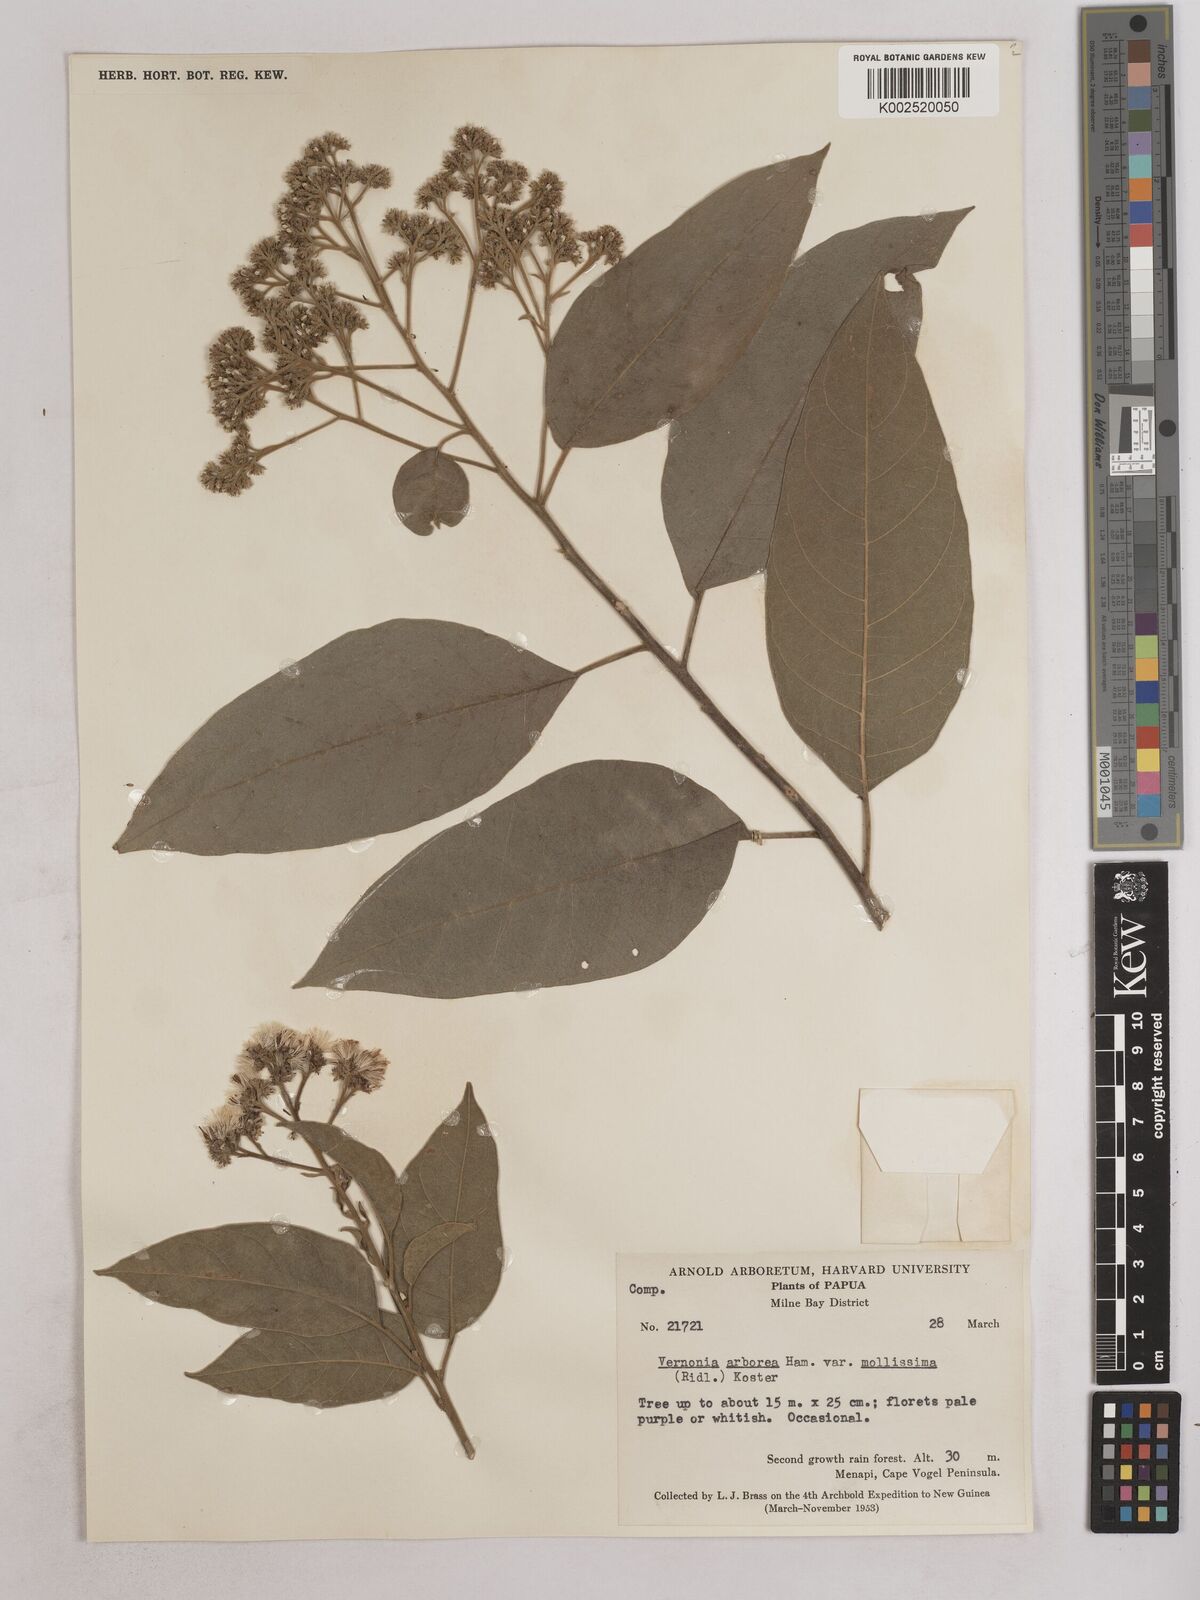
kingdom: Plantae
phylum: Tracheophyta
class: Magnoliopsida
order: Asterales
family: Asteraceae
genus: Strobocalyx
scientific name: Strobocalyx arborea
